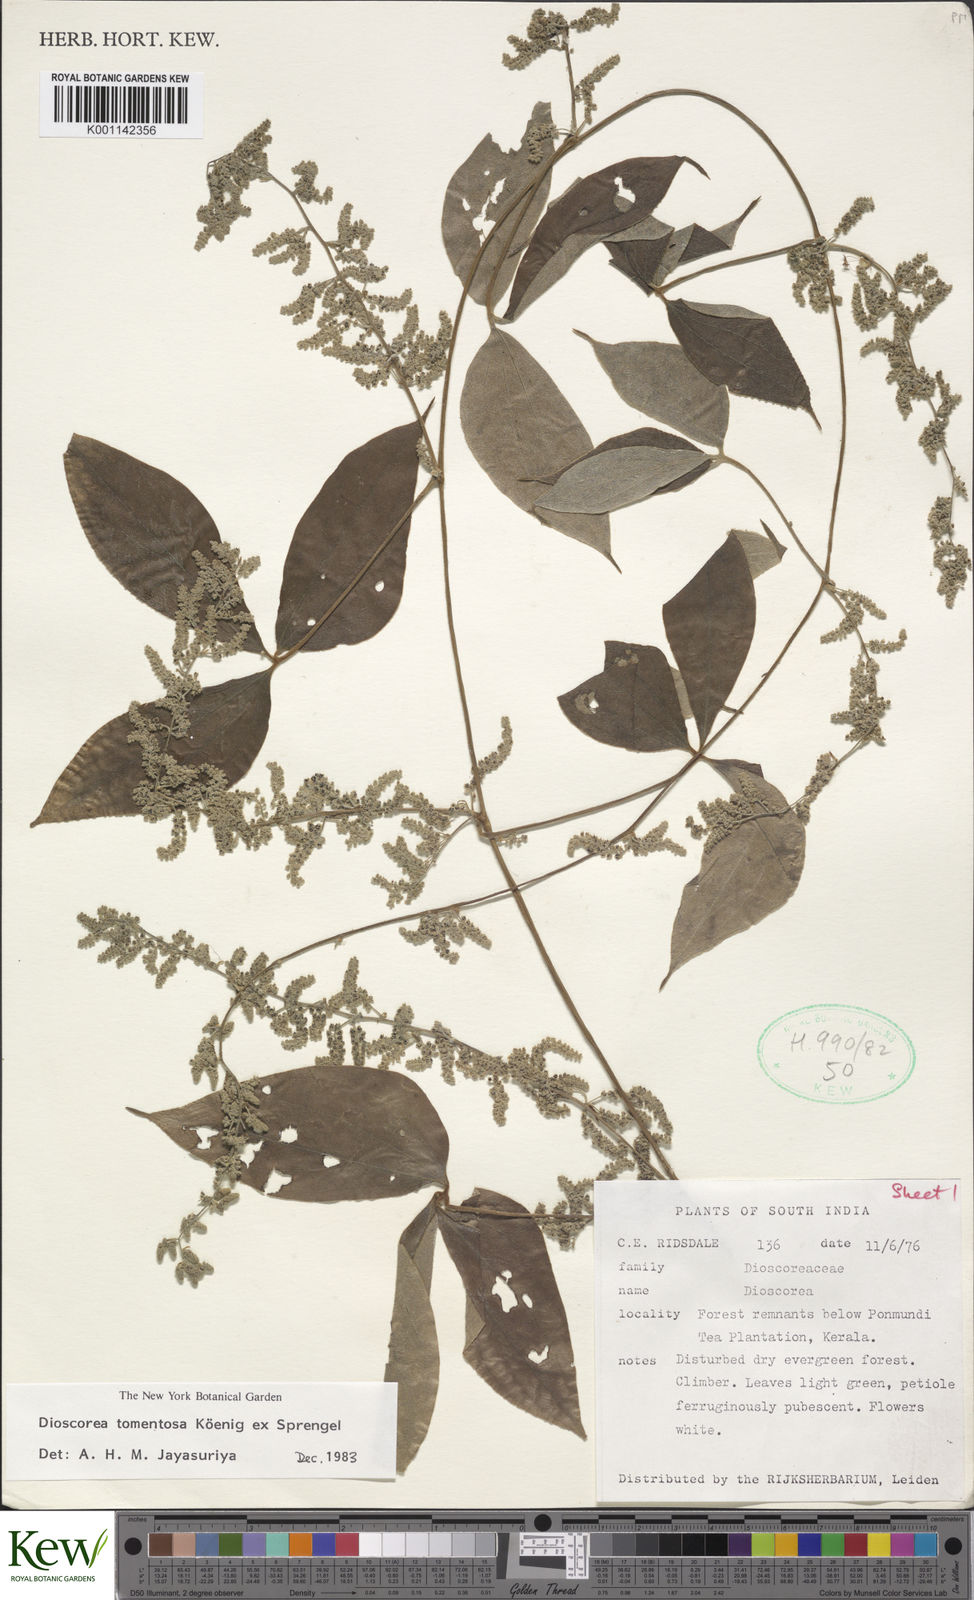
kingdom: Plantae
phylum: Tracheophyta
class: Liliopsida
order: Dioscoreales
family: Dioscoreaceae
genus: Dioscorea
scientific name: Dioscorea
